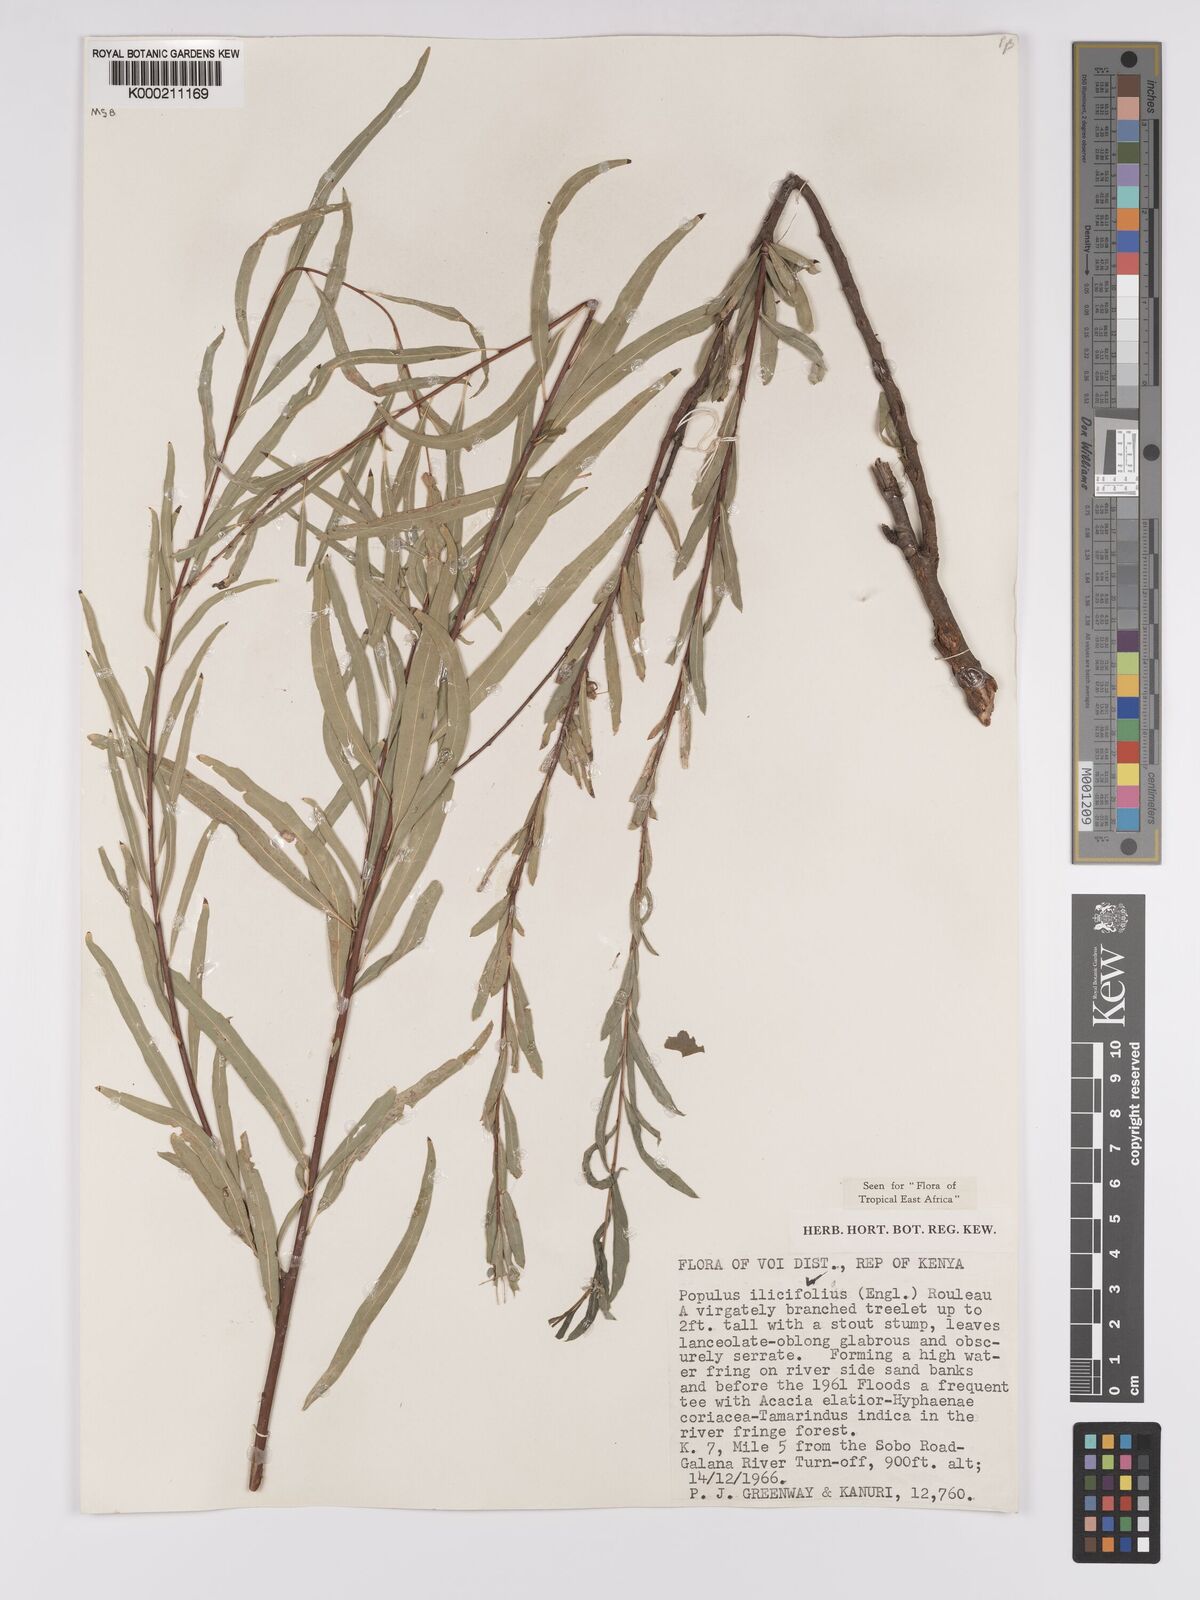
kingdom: Plantae
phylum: Tracheophyta
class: Magnoliopsida
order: Malpighiales
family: Salicaceae
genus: Populus
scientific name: Populus ilicifolia
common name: Tana river poplar
